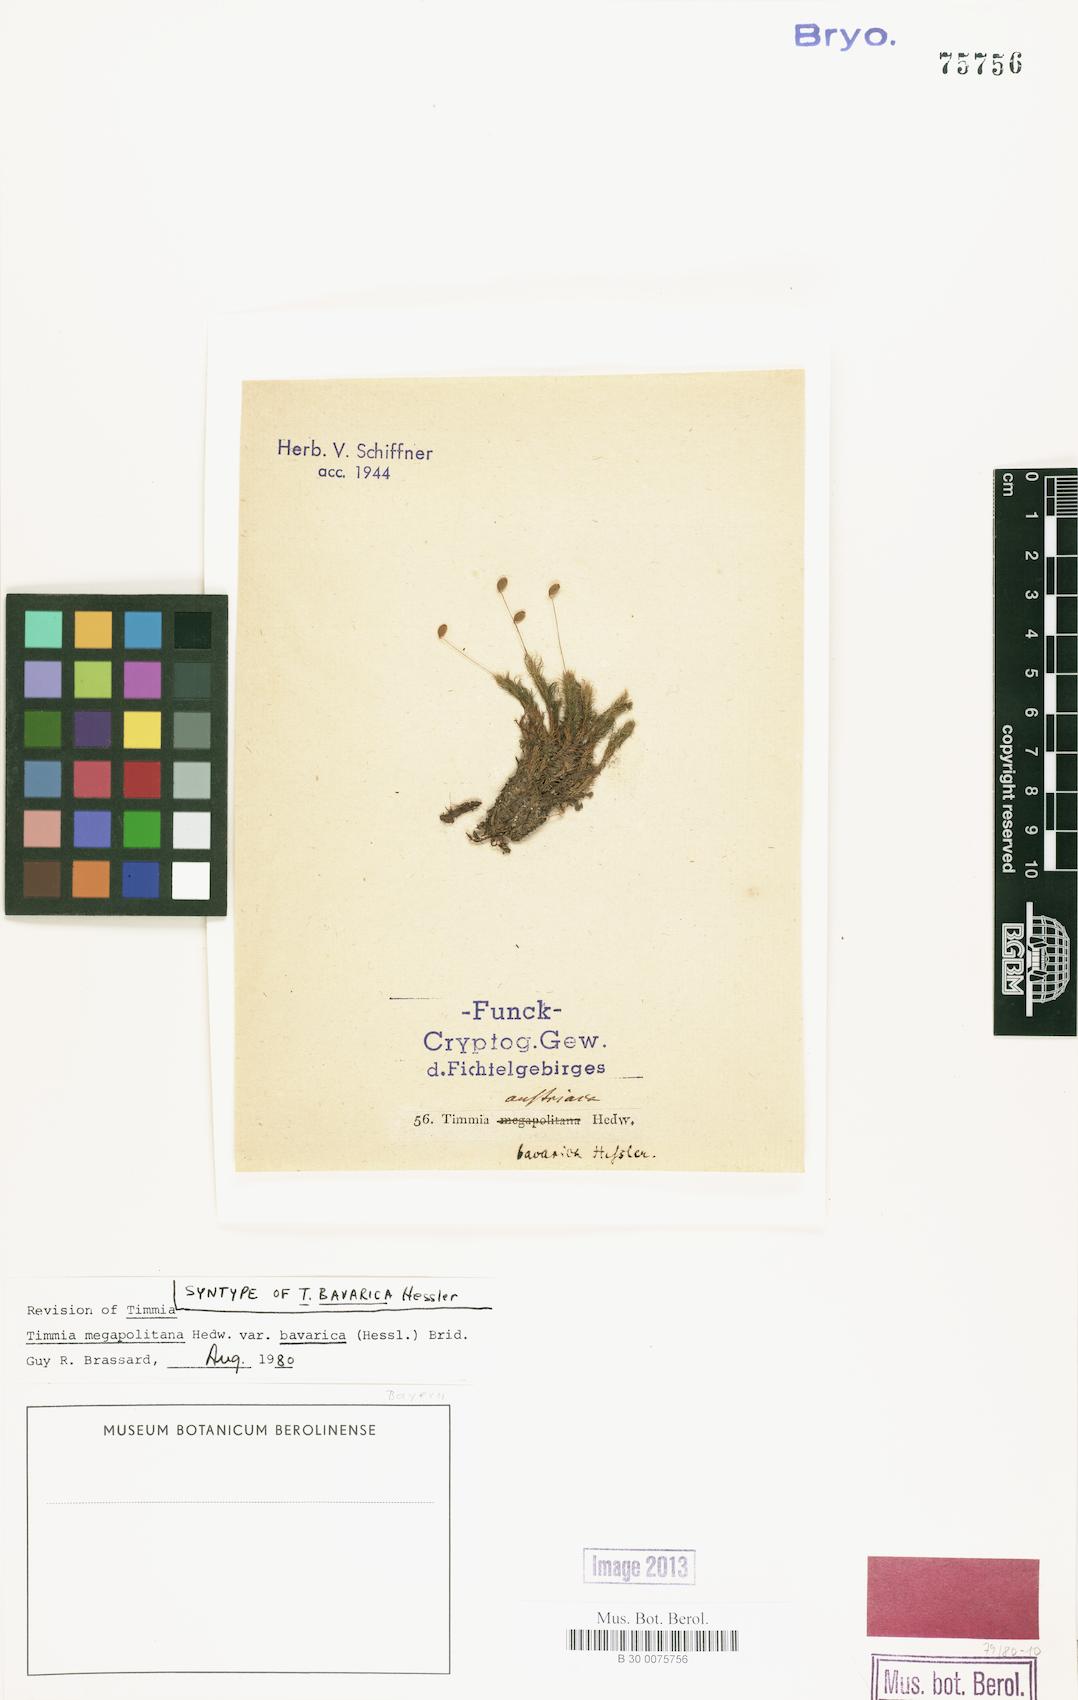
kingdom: Plantae
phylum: Bryophyta
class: Bryopsida
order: Timmiales
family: Timmiaceae
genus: Timmia
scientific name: Timmia bavarica
